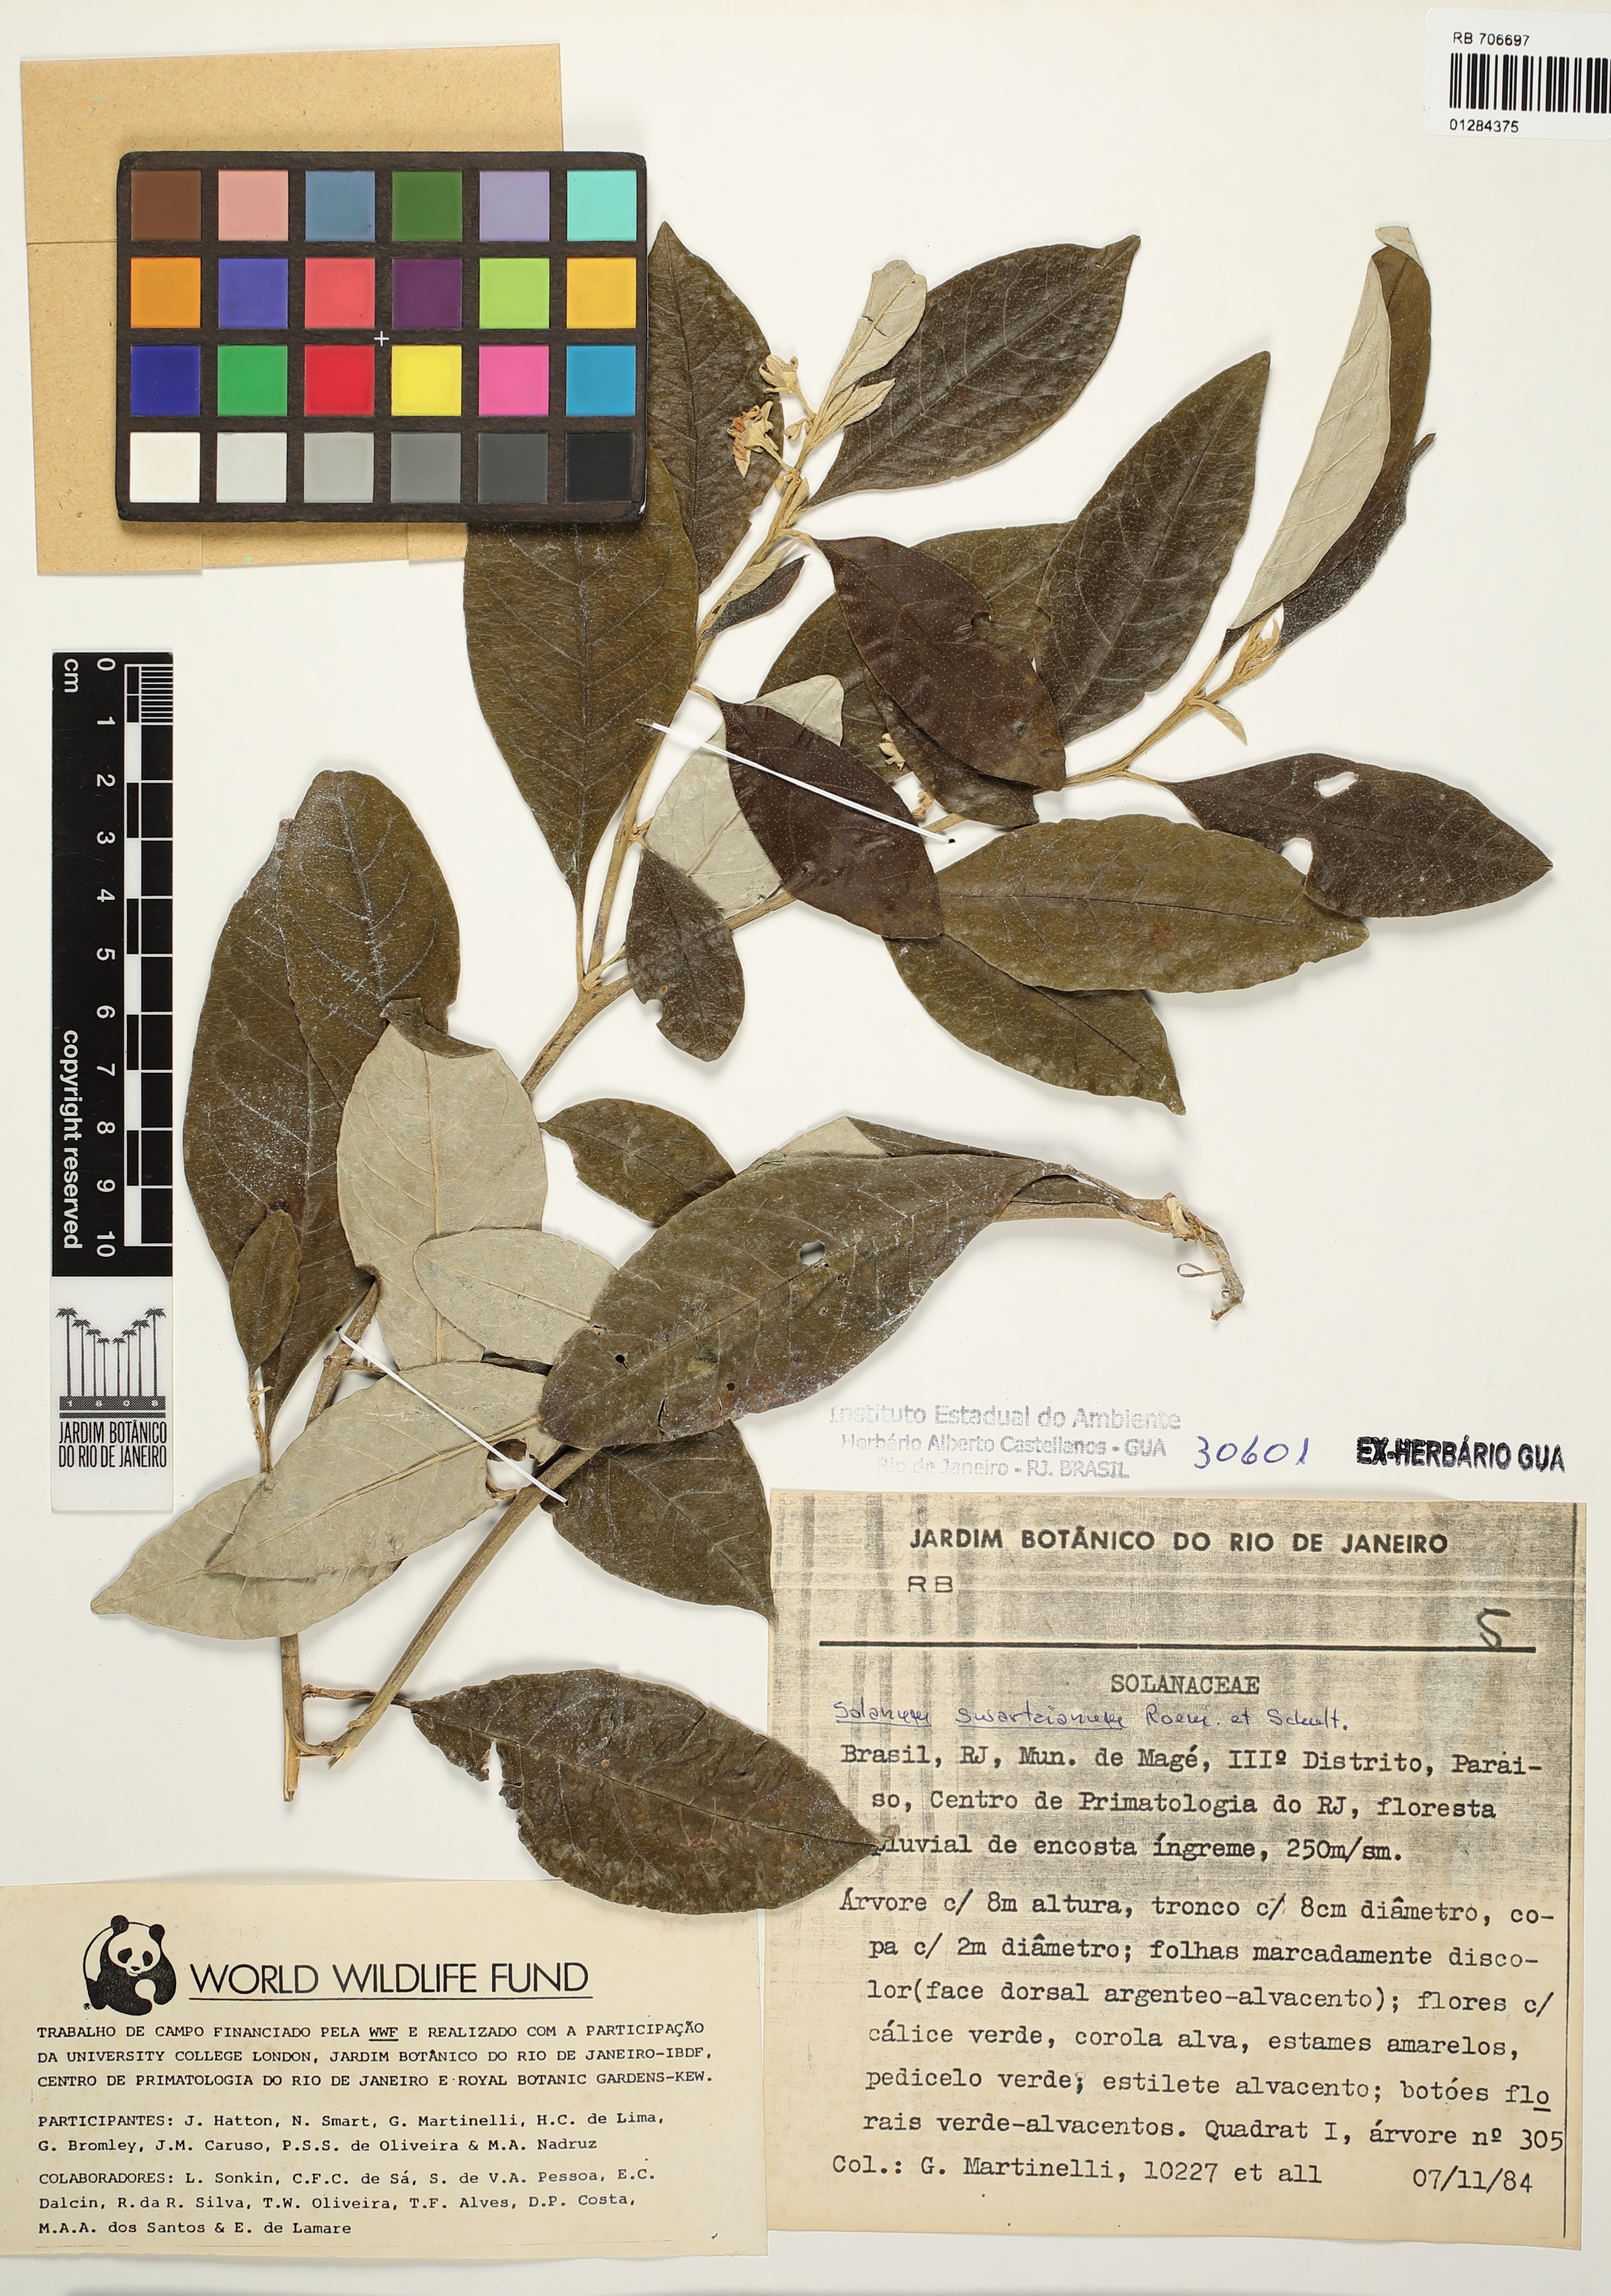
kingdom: Plantae
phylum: Tracheophyta
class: Magnoliopsida
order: Solanales
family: Solanaceae
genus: Solanum
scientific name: Solanum velleum
